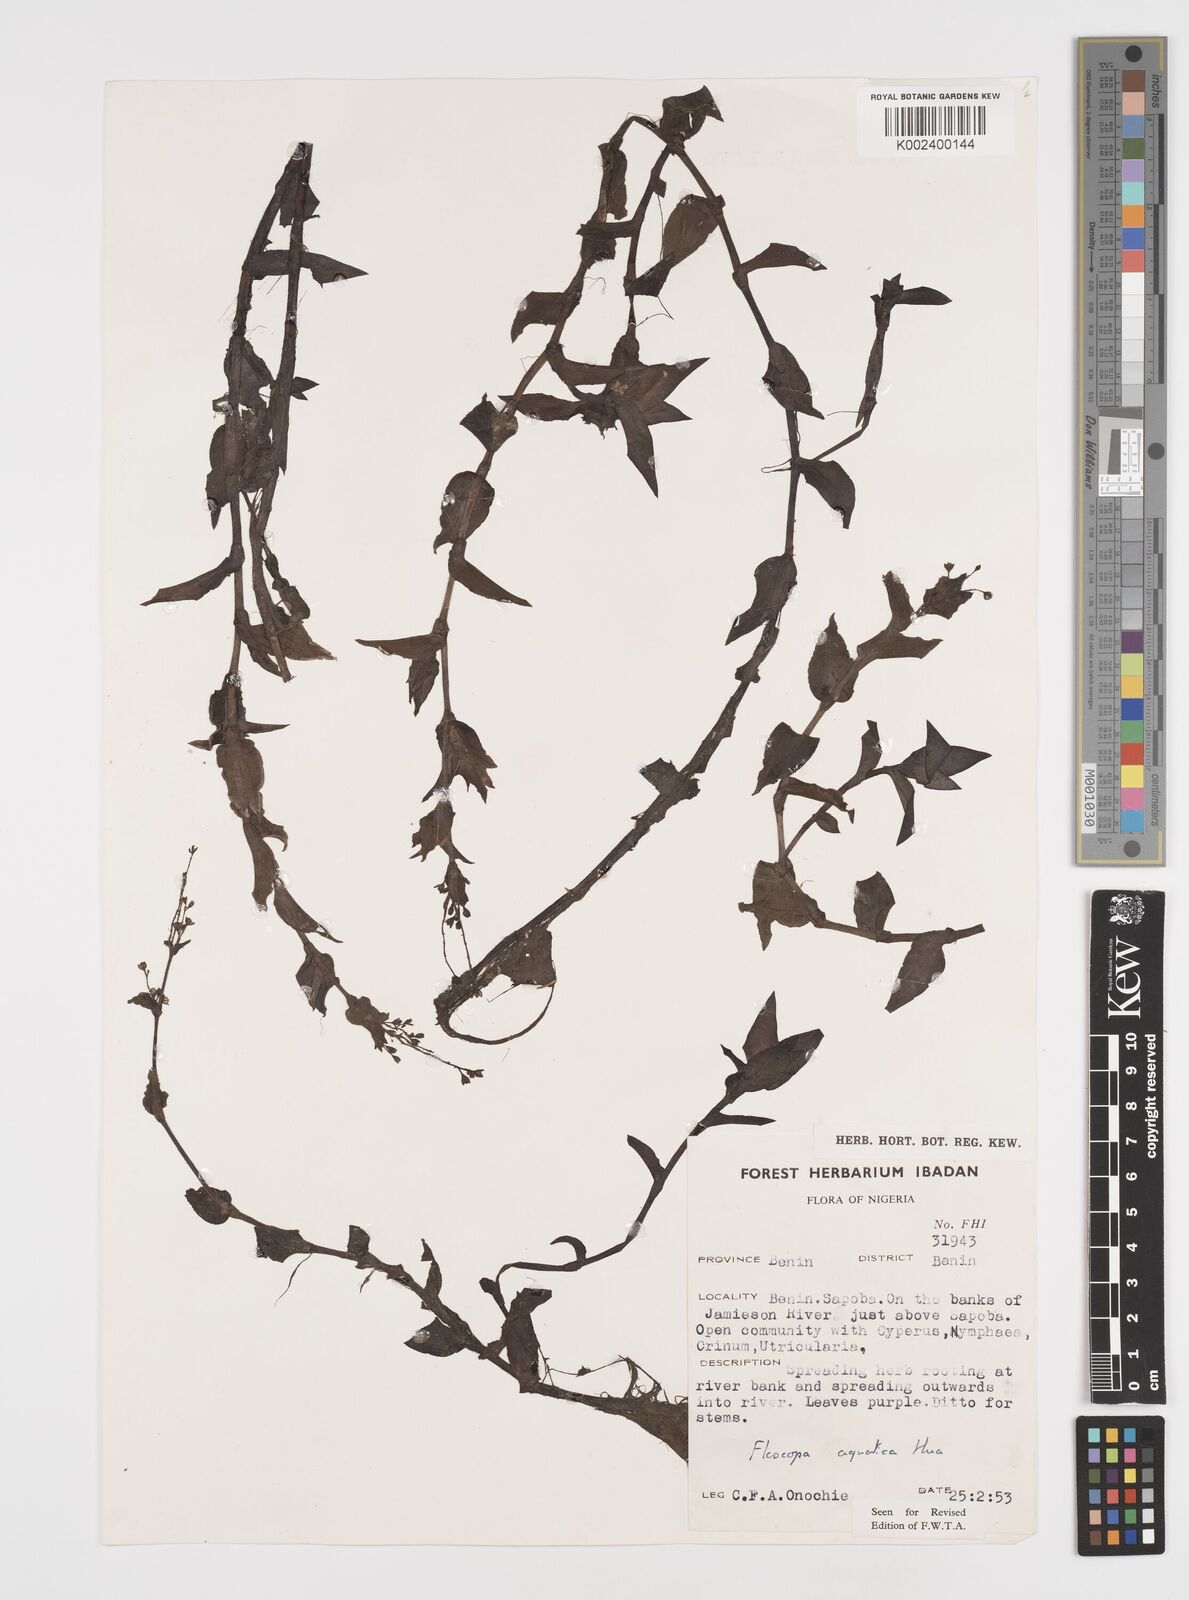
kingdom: Plantae
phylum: Tracheophyta
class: Liliopsida
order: Commelinales
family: Commelinaceae
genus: Floscopa
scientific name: Floscopa aquatica
